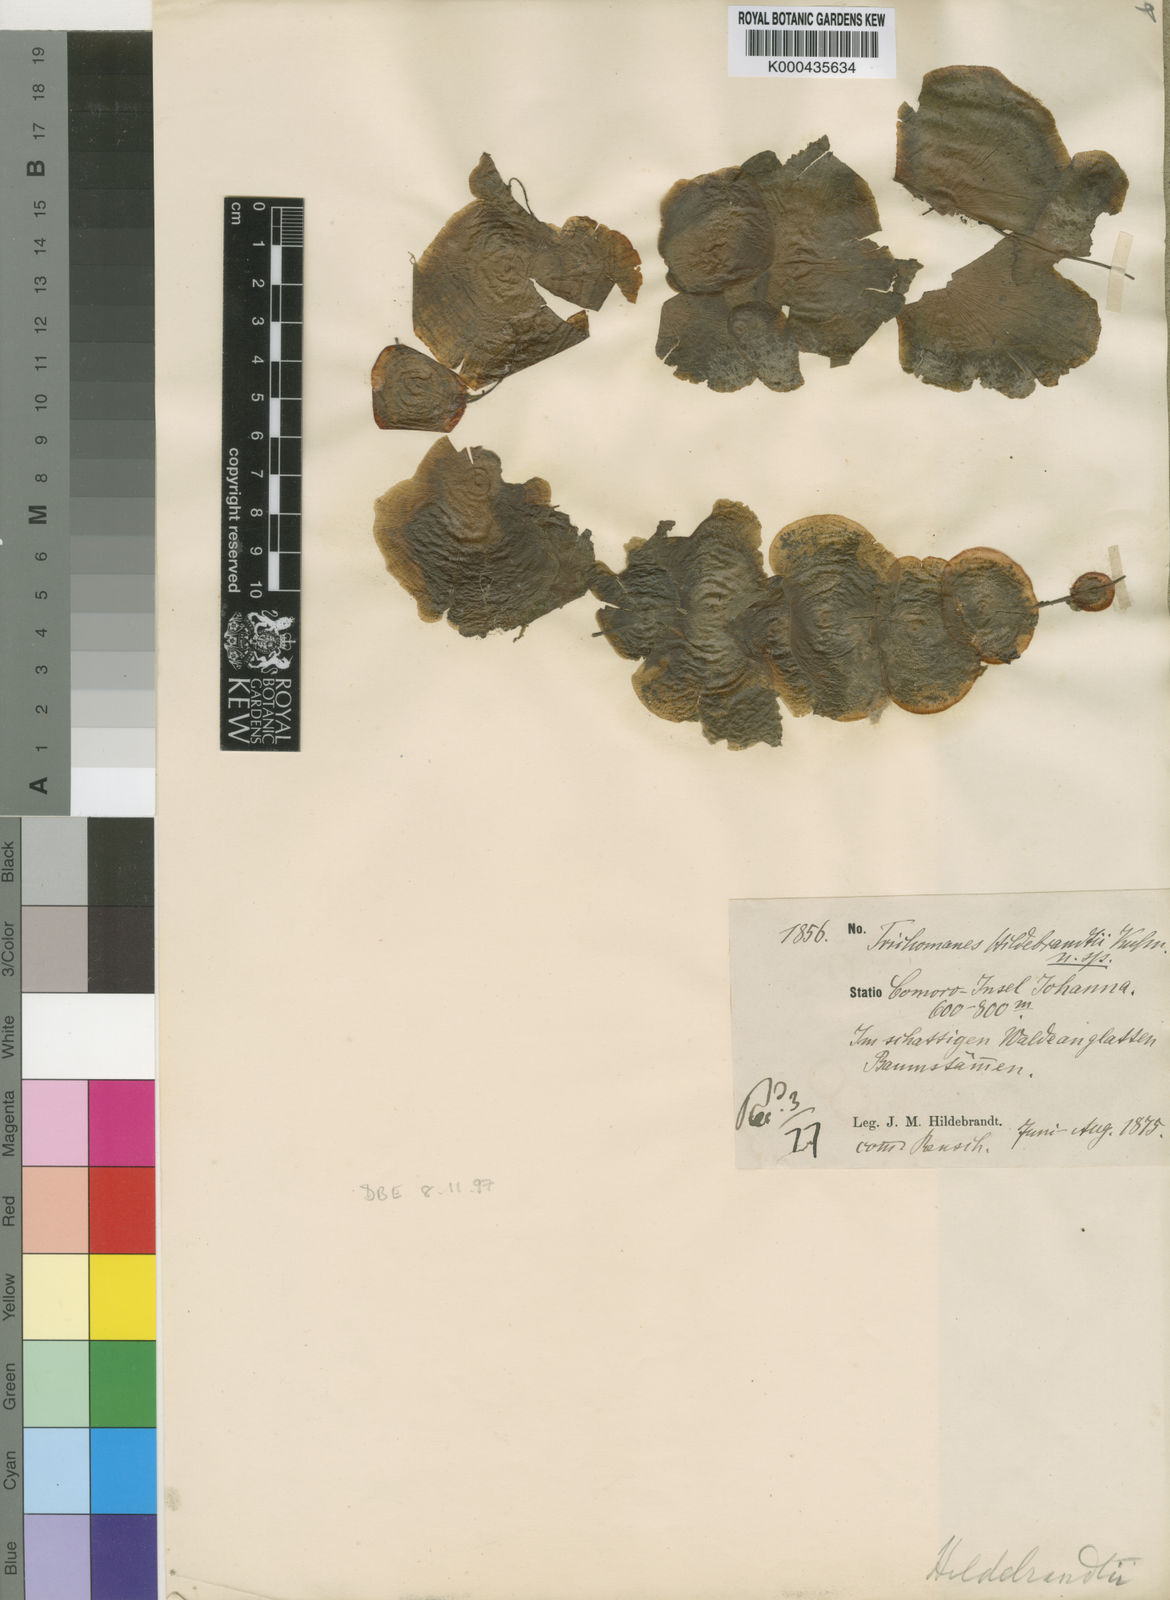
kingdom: Plantae
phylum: Tracheophyta
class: Polypodiopsida
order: Hymenophyllales
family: Hymenophyllaceae
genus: Didymoglossum
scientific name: Didymoglossum hildebrandtii
